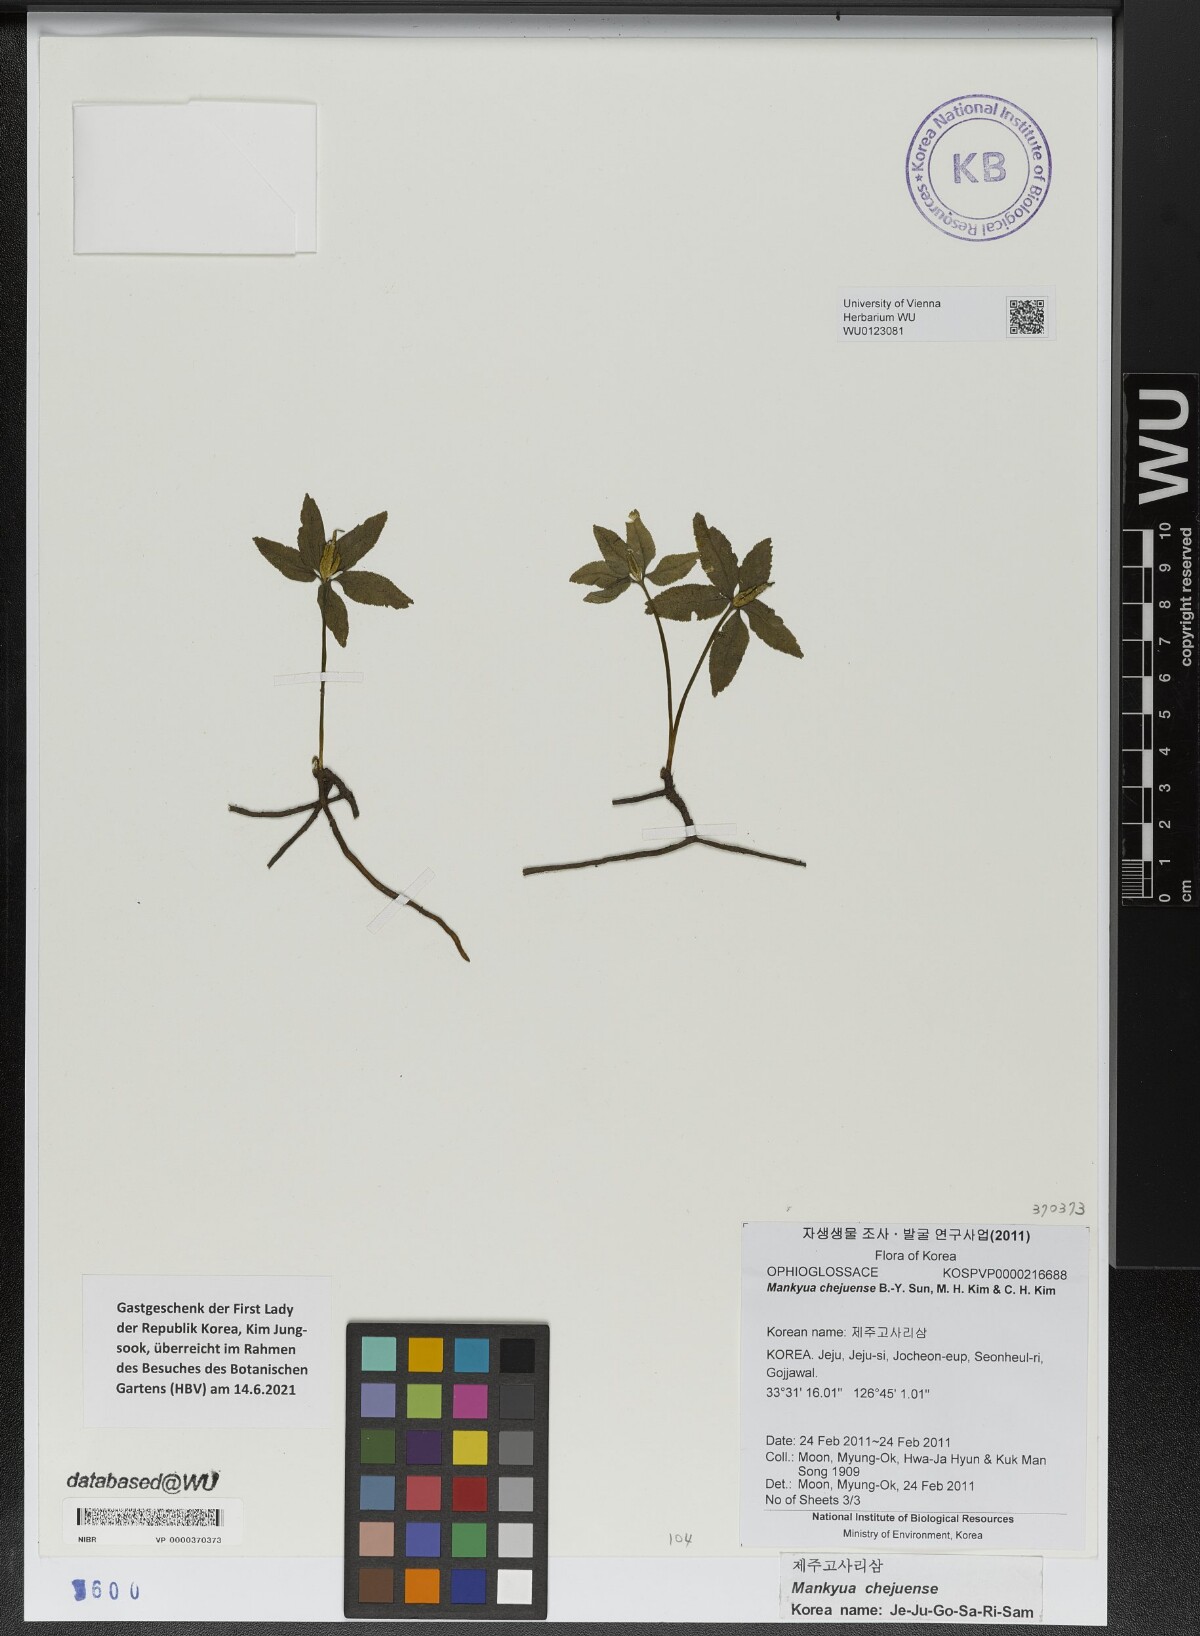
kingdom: Plantae
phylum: Tracheophyta
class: Polypodiopsida
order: Ophioglossales
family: Ophioglossaceae
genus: Mankyua
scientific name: Mankyua chejuensis
